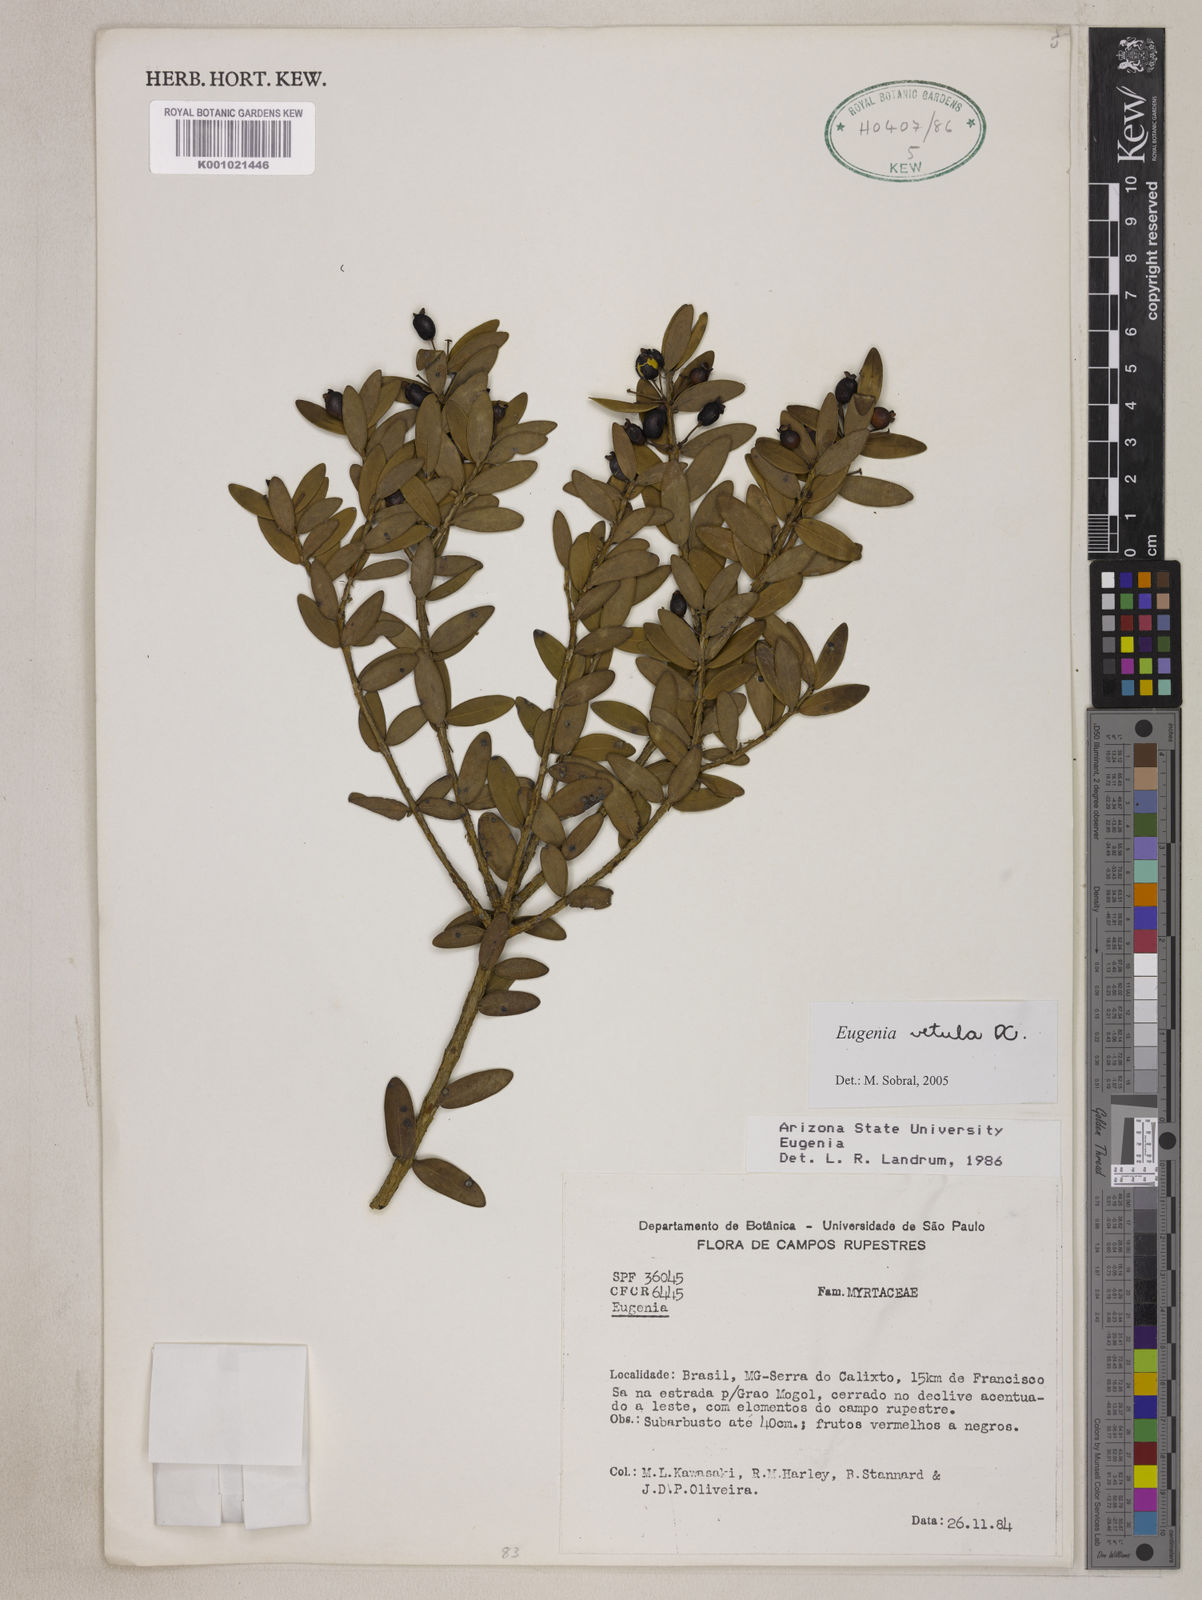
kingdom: Plantae
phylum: Tracheophyta
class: Magnoliopsida
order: Myrtales
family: Myrtaceae
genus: Eugenia
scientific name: Eugenia vetula
